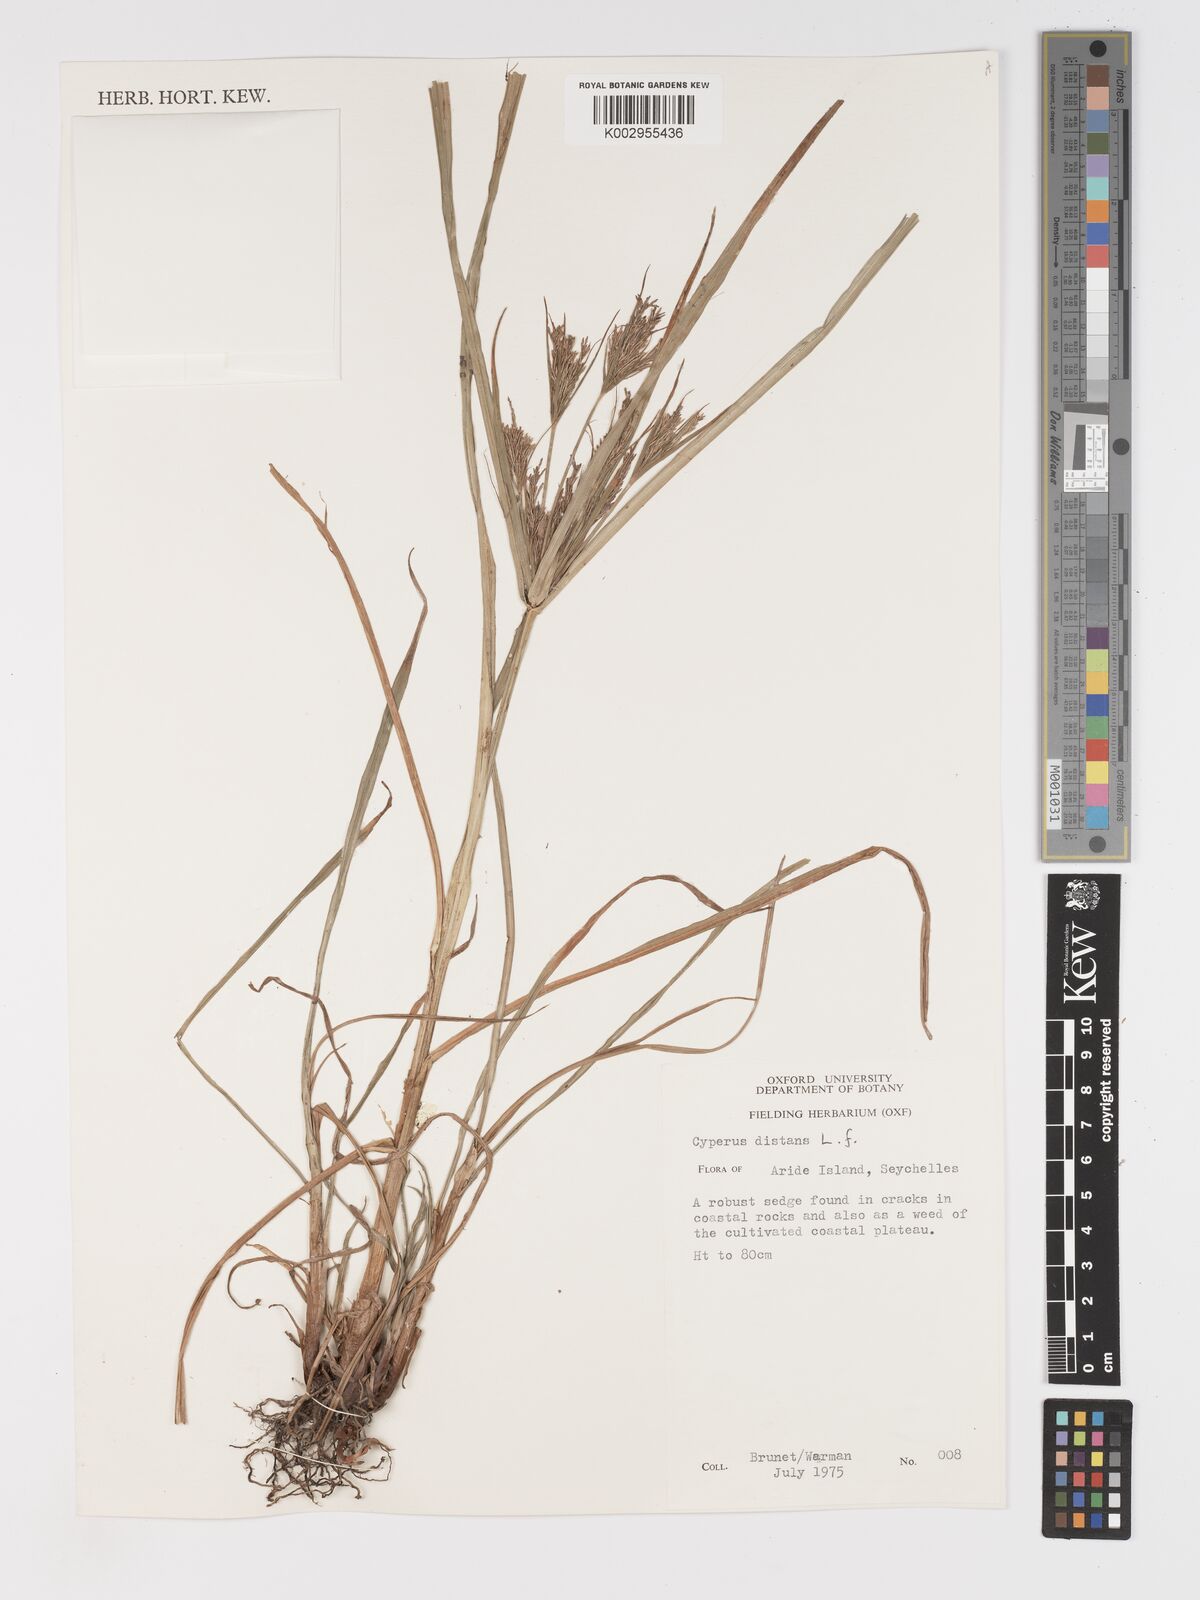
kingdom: Plantae
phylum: Tracheophyta
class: Liliopsida
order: Poales
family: Cyperaceae
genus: Cyperus
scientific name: Cyperus distans
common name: Slender cyperus
